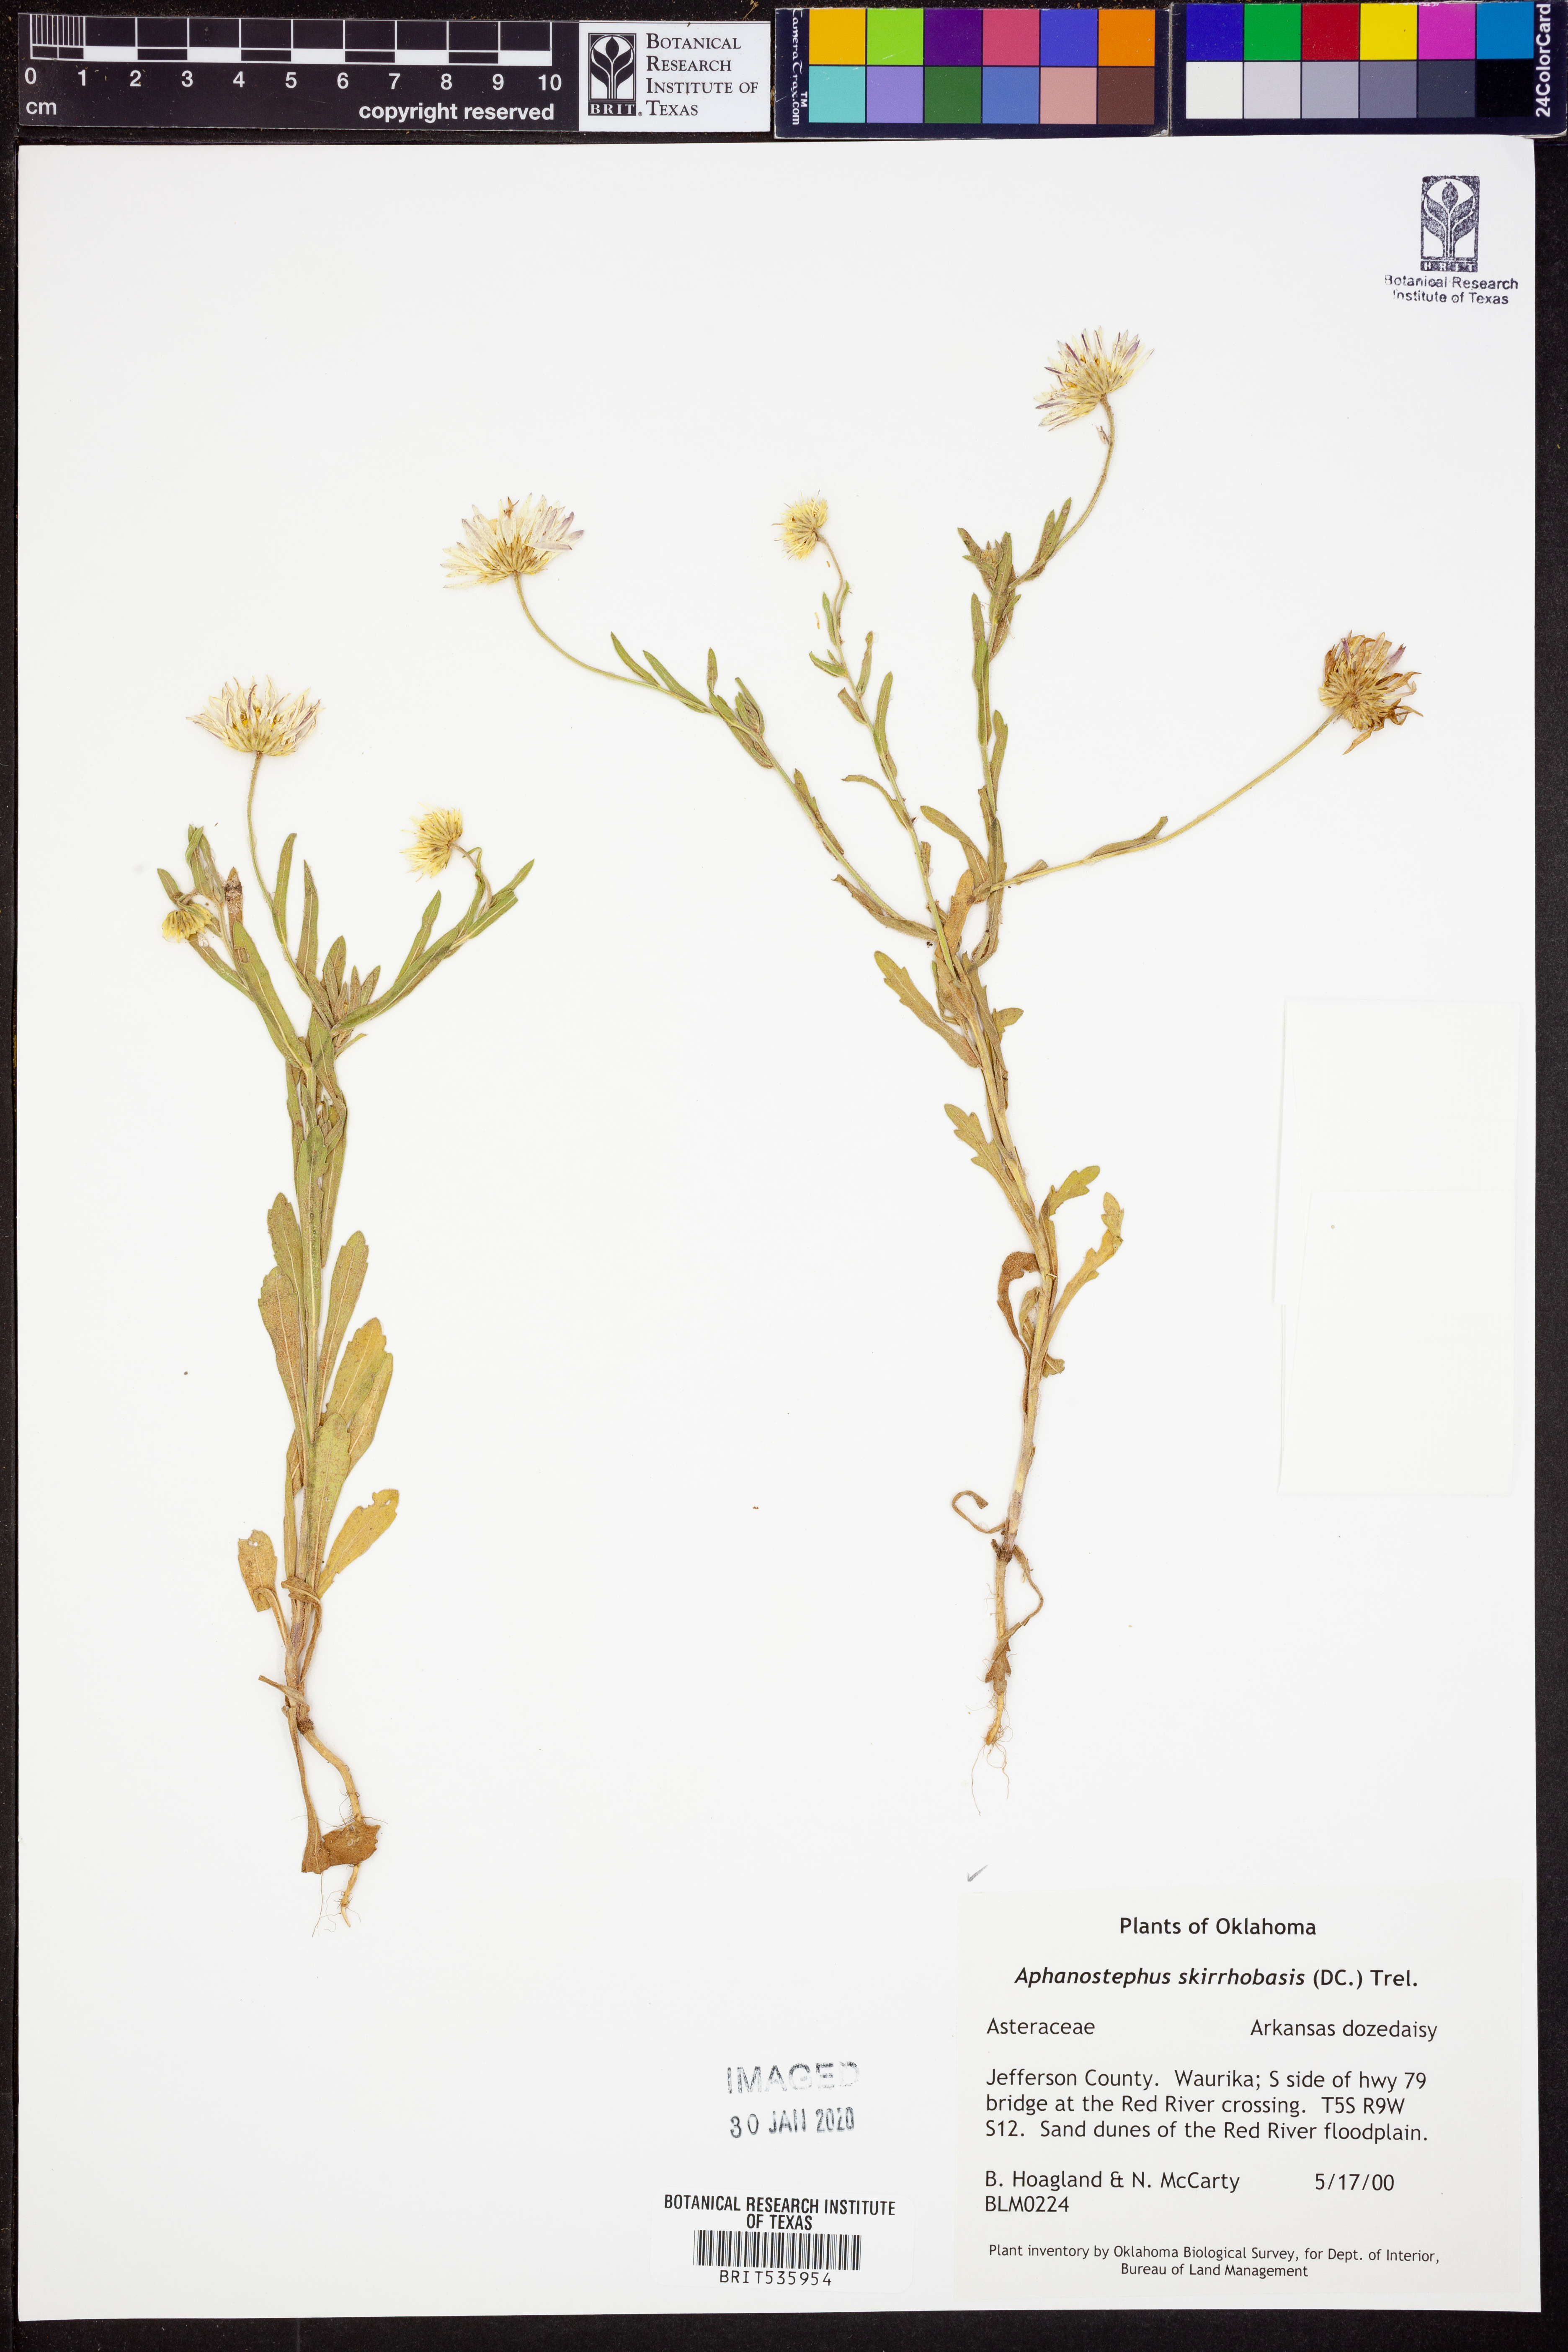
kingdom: Plantae
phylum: Tracheophyta
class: Magnoliopsida
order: Asterales
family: Asteraceae
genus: Aphanostephus
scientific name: Aphanostephus skirrhobasis
